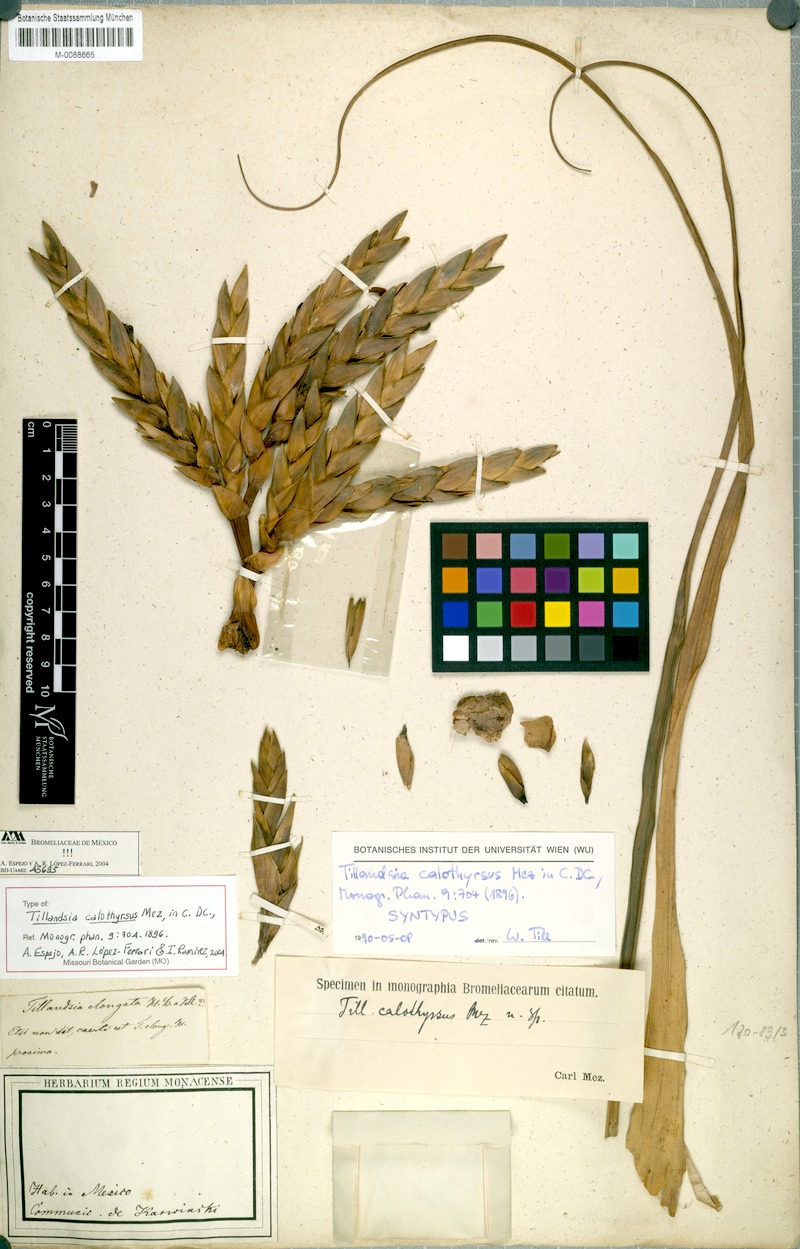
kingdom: Plantae
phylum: Tracheophyta
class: Liliopsida
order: Poales
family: Bromeliaceae
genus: Tillandsia
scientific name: Tillandsia calothyrsus
